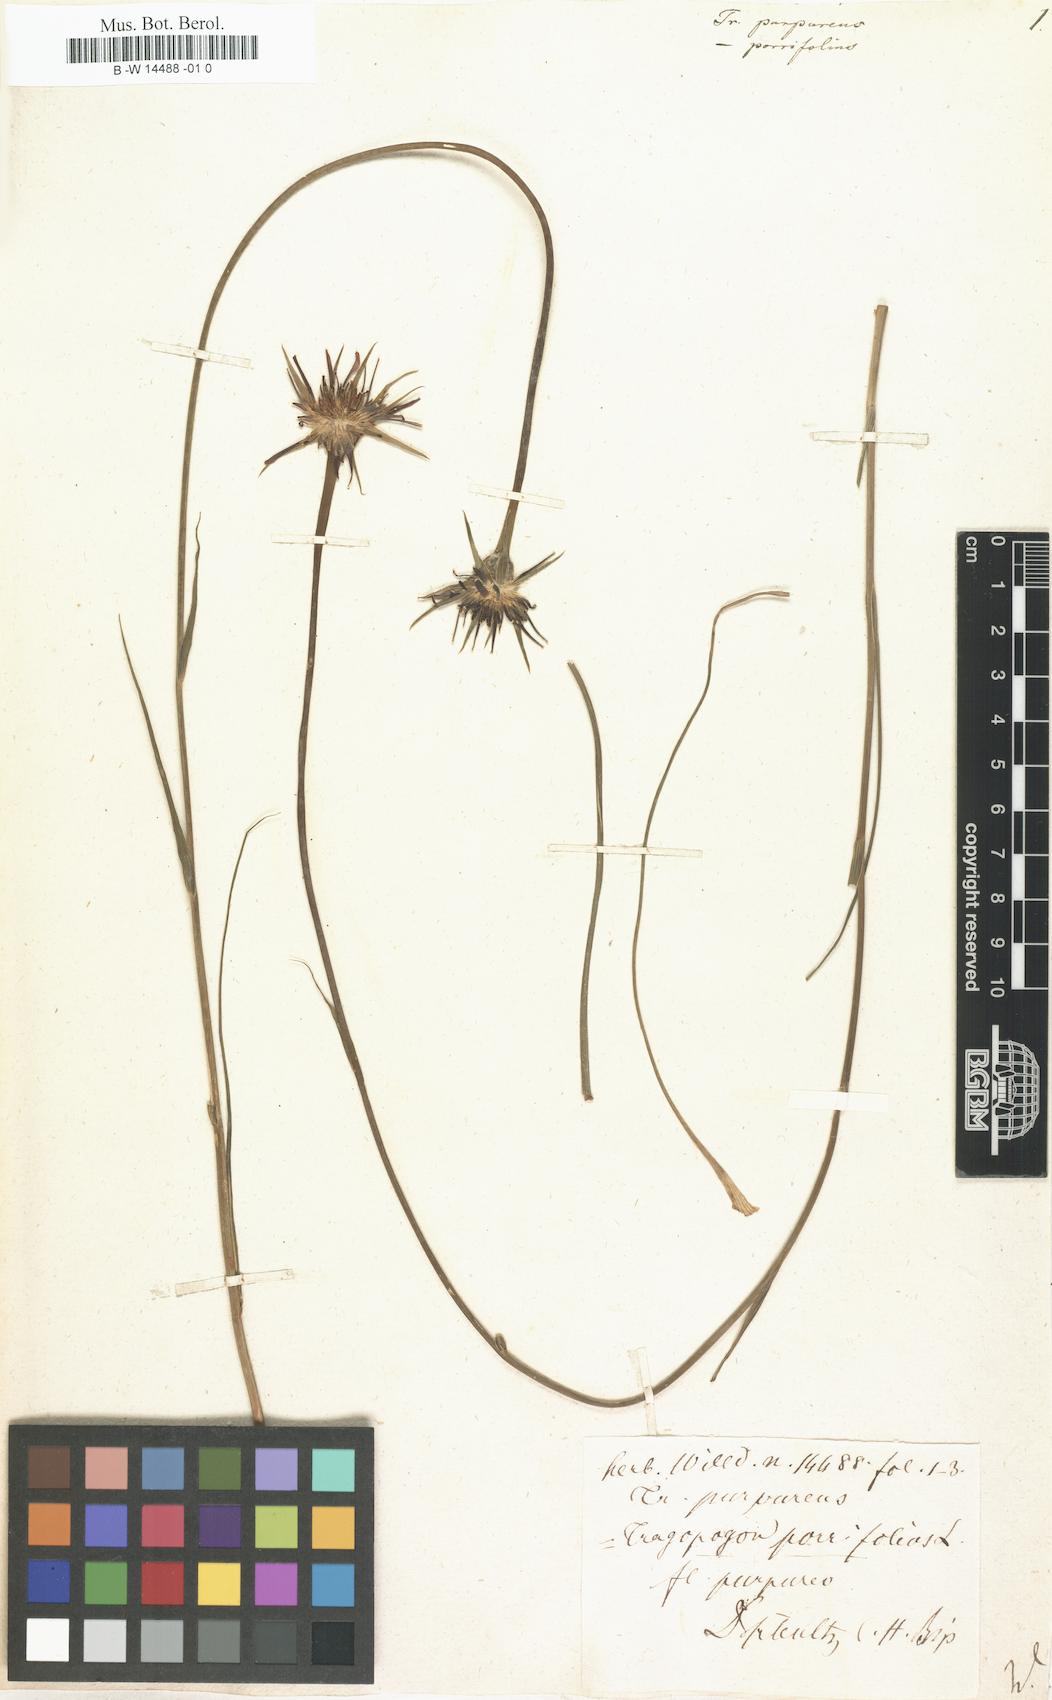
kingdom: Plantae
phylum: Tracheophyta
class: Magnoliopsida
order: Asterales
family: Asteraceae
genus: Tragopogon
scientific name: Tragopogon
